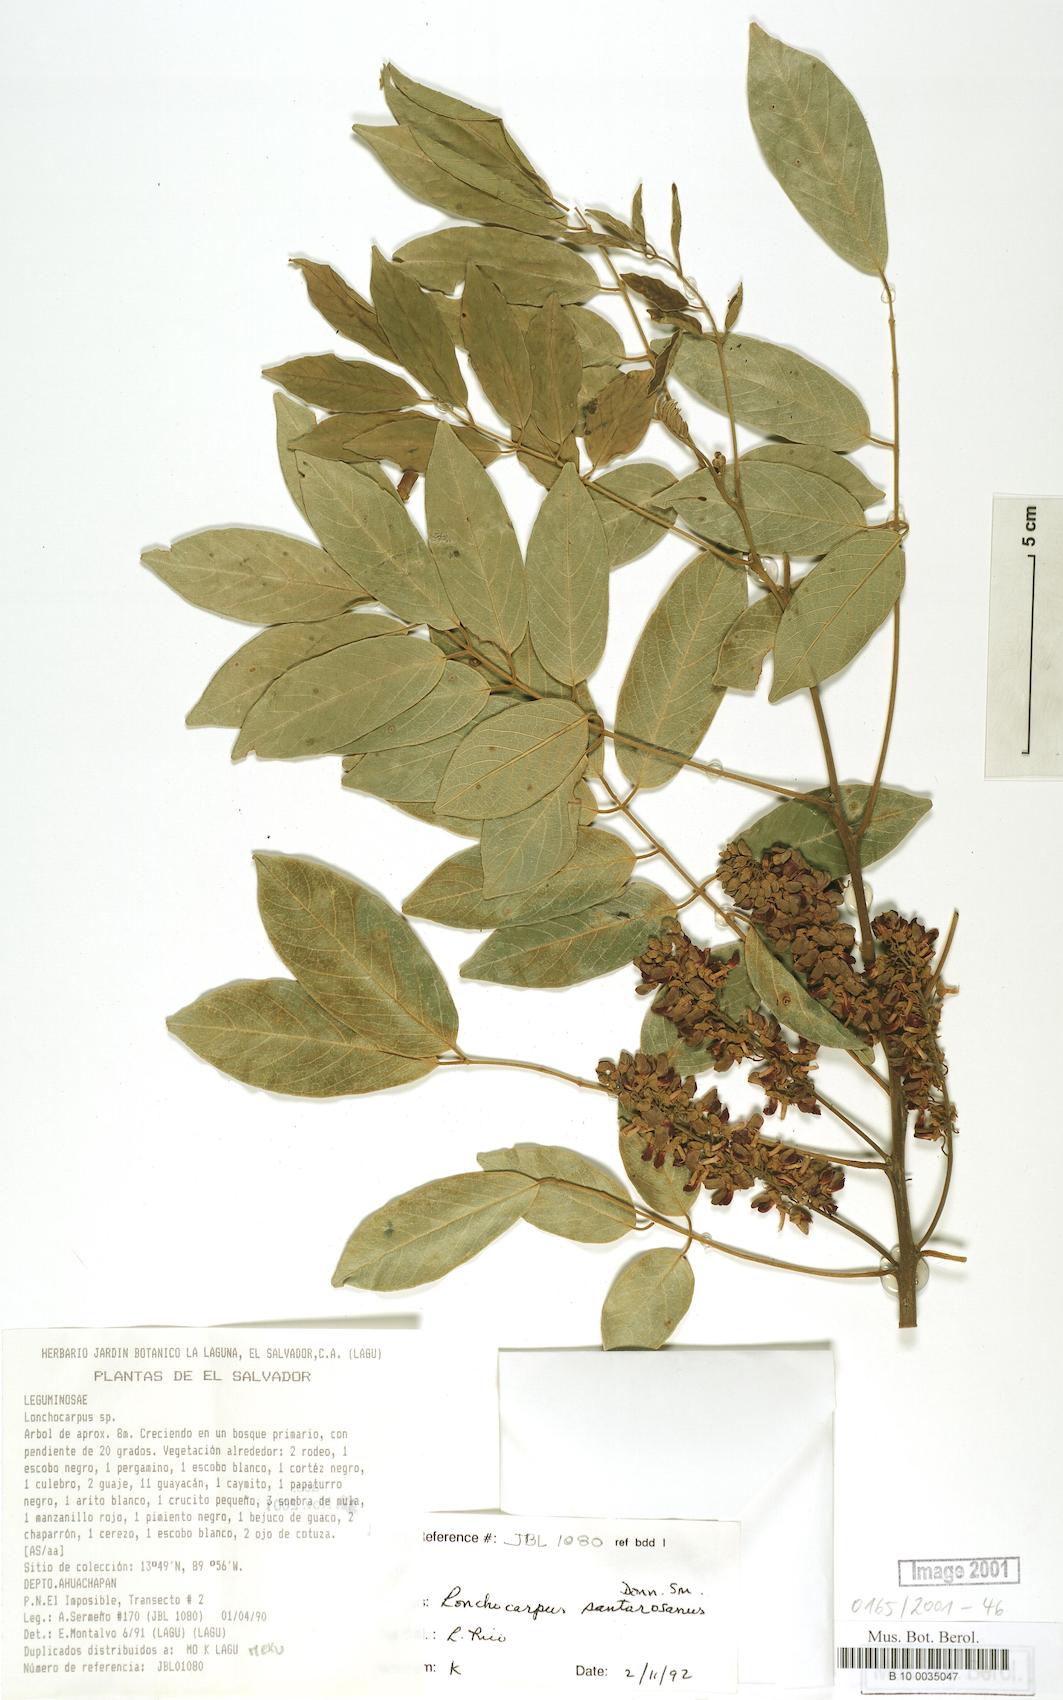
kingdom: Plantae
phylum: Tracheophyta
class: Magnoliopsida
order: Fabales
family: Fabaceae
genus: Lonchocarpus
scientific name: Lonchocarpus purpureus
